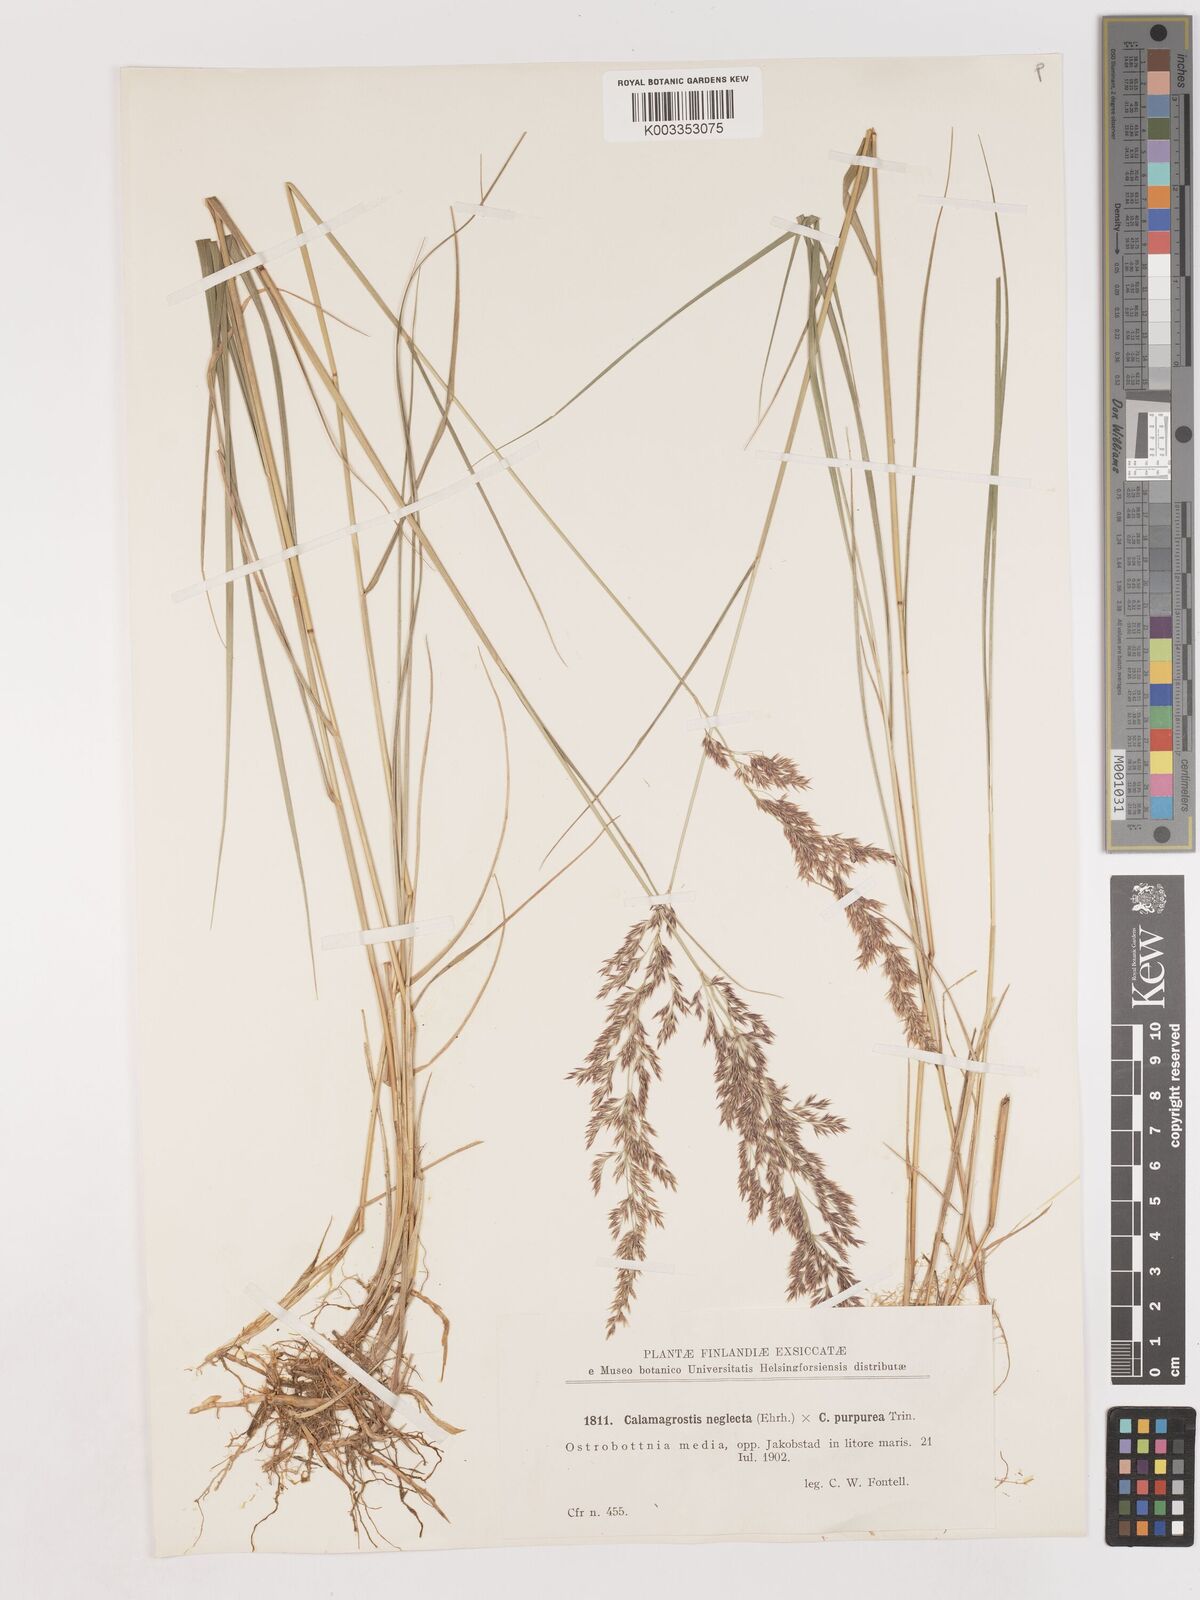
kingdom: Plantae
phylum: Tracheophyta
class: Liliopsida
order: Poales
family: Poaceae
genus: Calamagrostis
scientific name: Calamagrostis epigejos
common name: Wood small-reed
